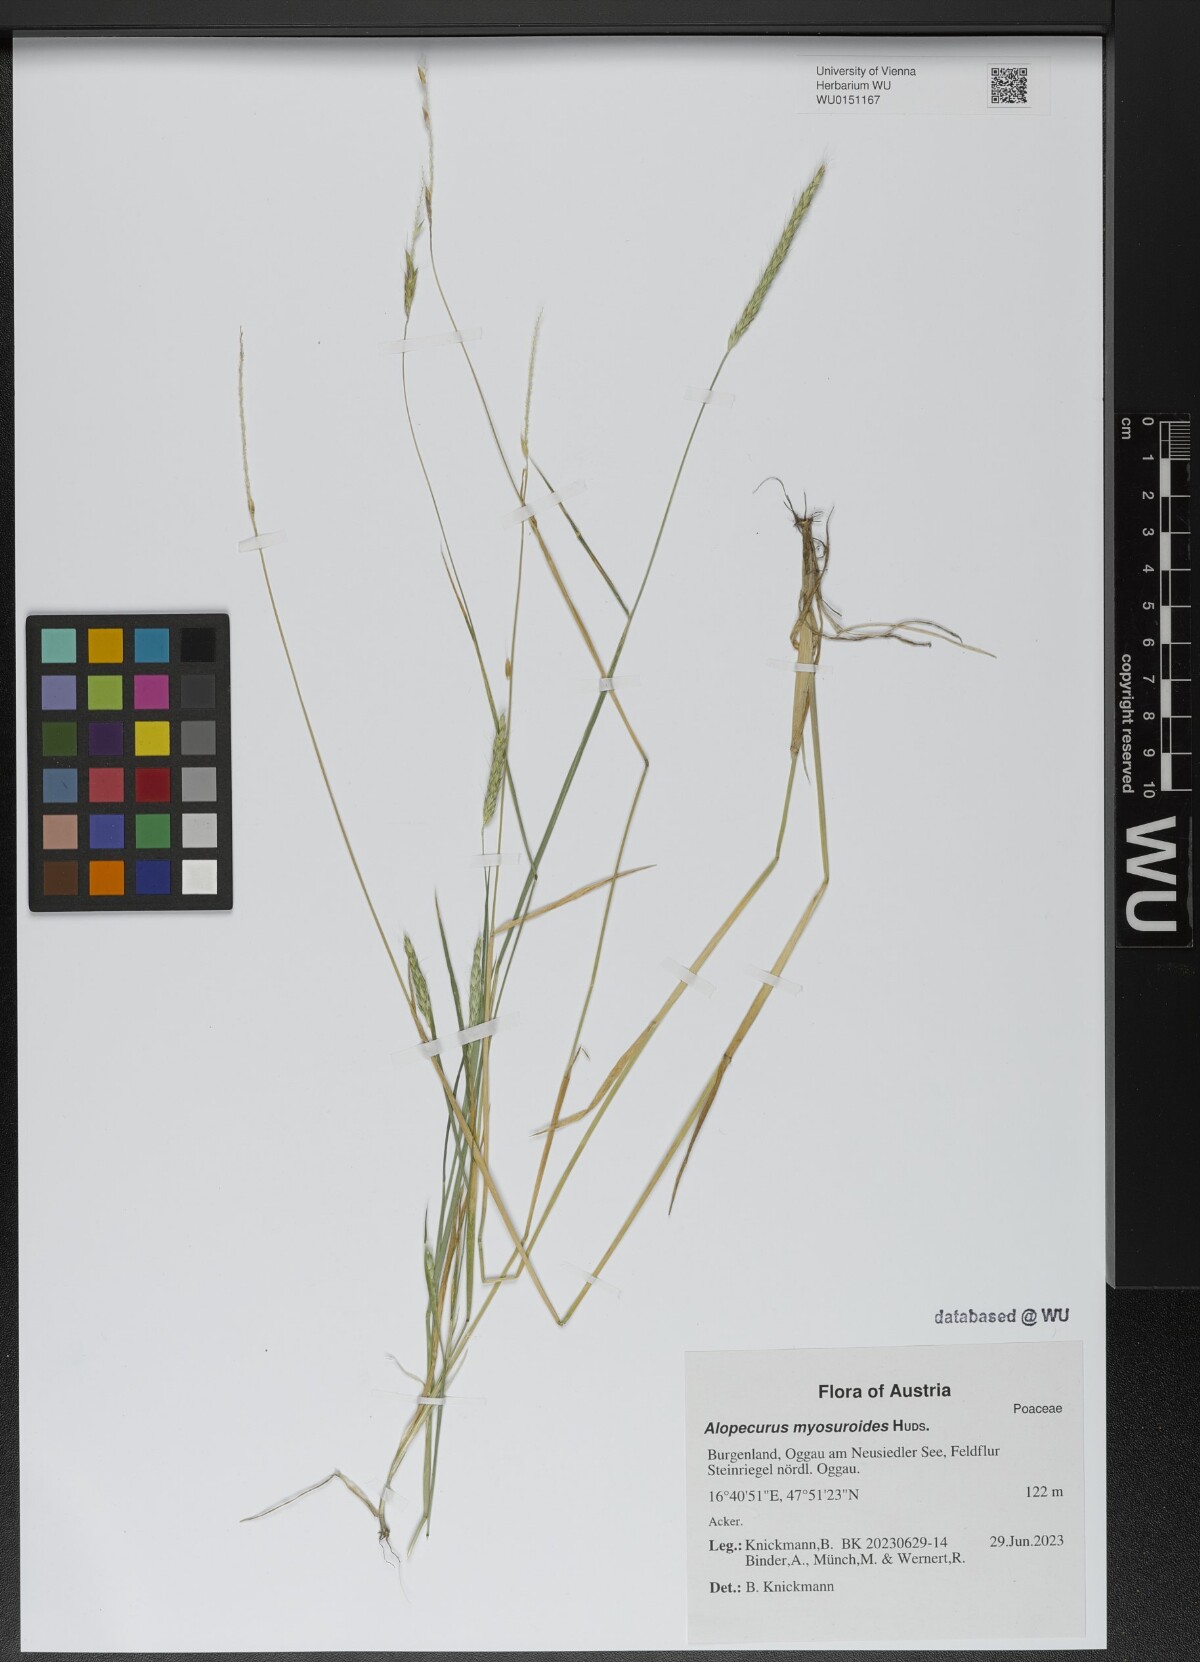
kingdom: Plantae
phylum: Tracheophyta
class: Liliopsida
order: Poales
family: Poaceae
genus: Alopecurus
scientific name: Alopecurus myosuroides
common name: Black-grass
